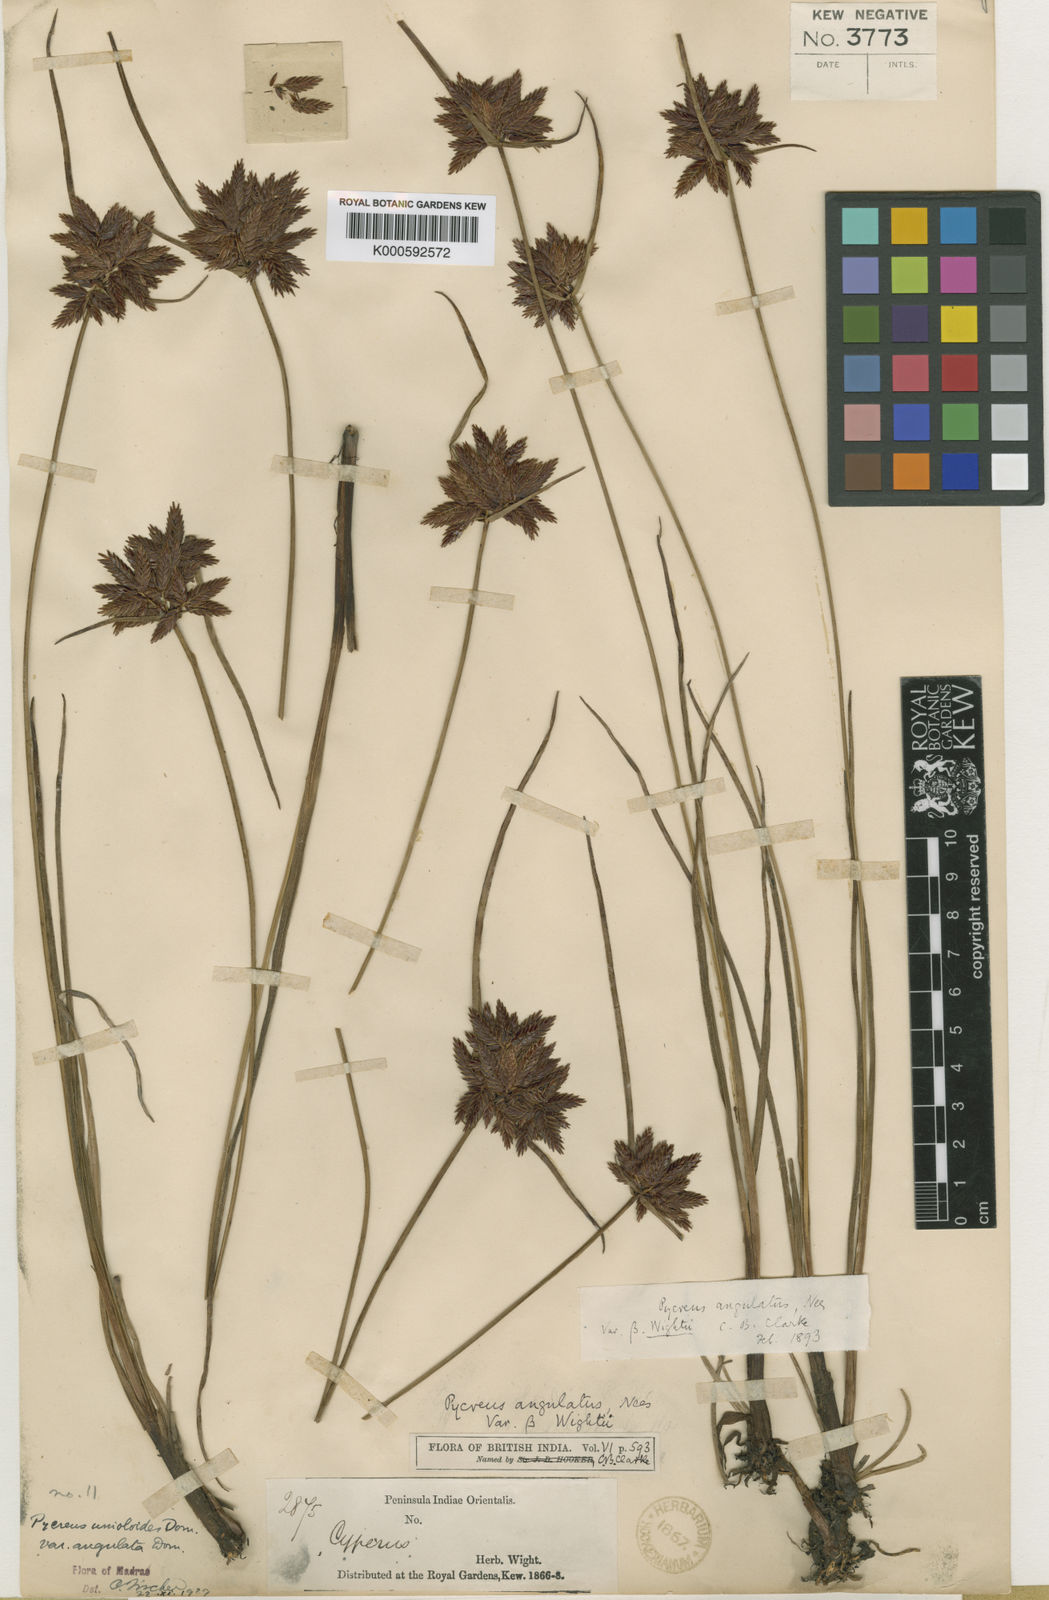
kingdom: Plantae
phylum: Tracheophyta
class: Liliopsida
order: Poales
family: Cyperaceae
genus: Cyperus
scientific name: Cyperus unioloides
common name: Uniola flatsedge
